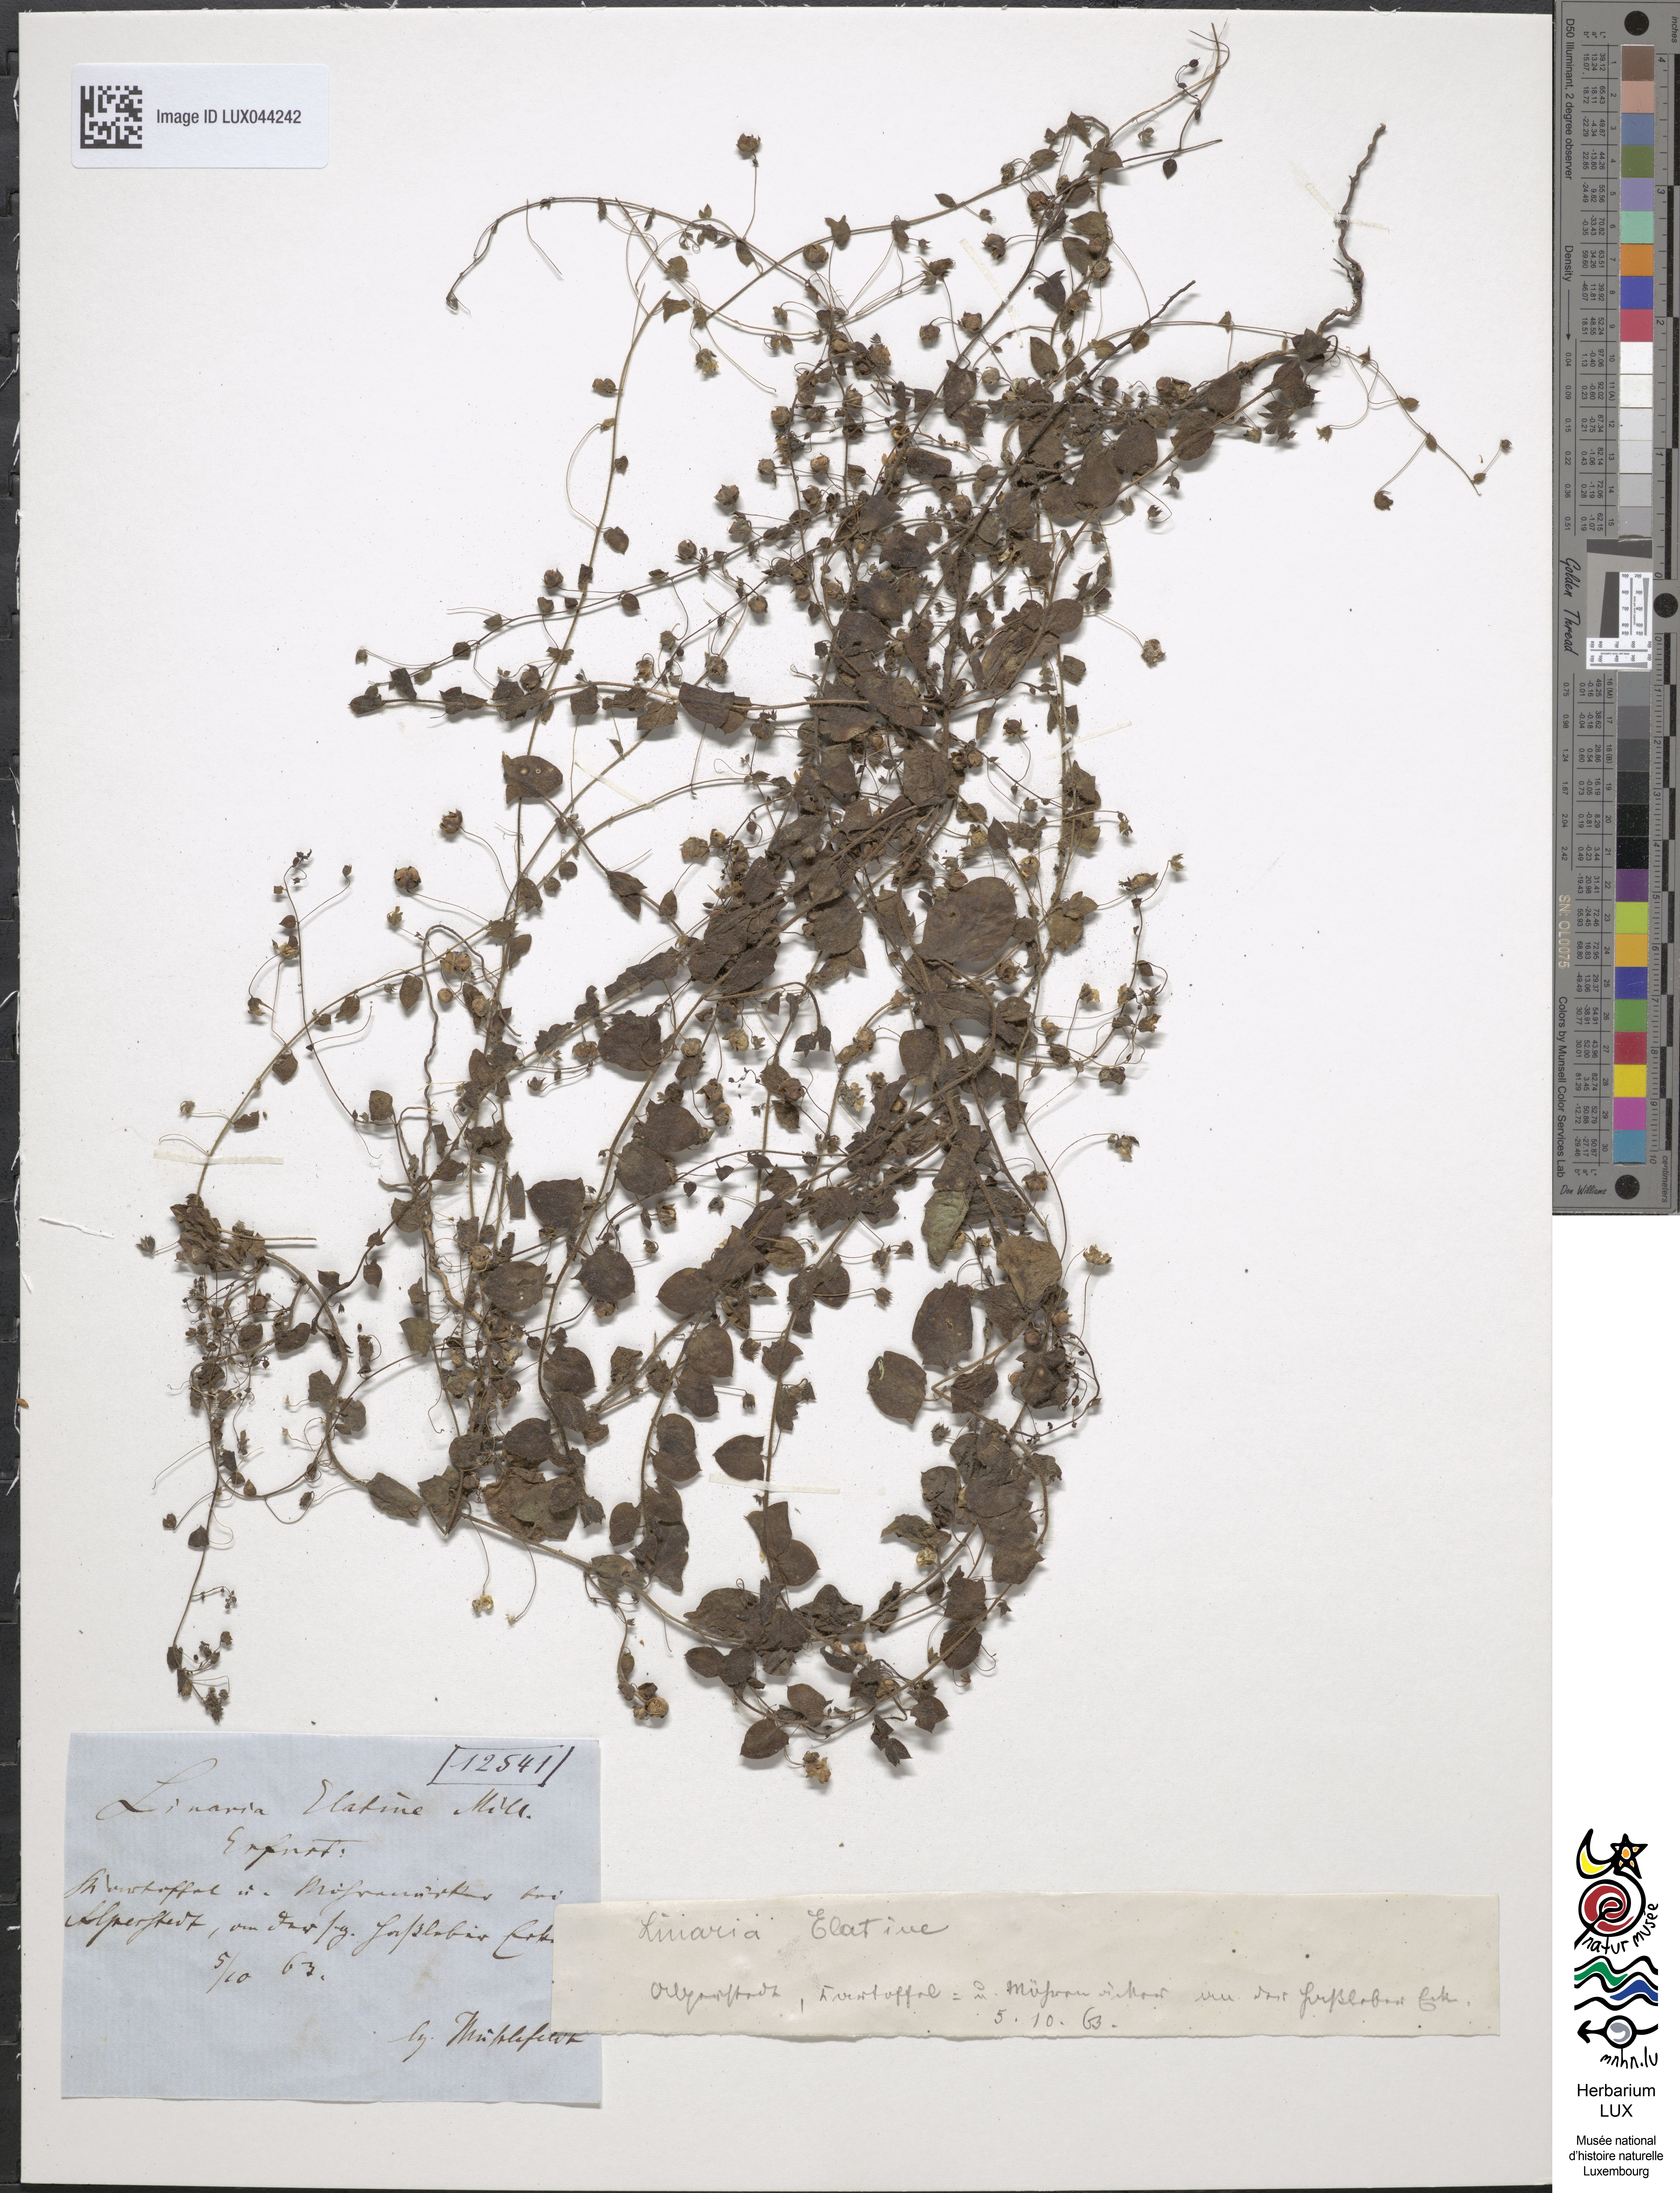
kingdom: Plantae
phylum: Tracheophyta
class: Magnoliopsida
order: Lamiales
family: Plantaginaceae
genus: Kickxia
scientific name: Kickxia elatine
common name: Sharp-leaved fluellen
